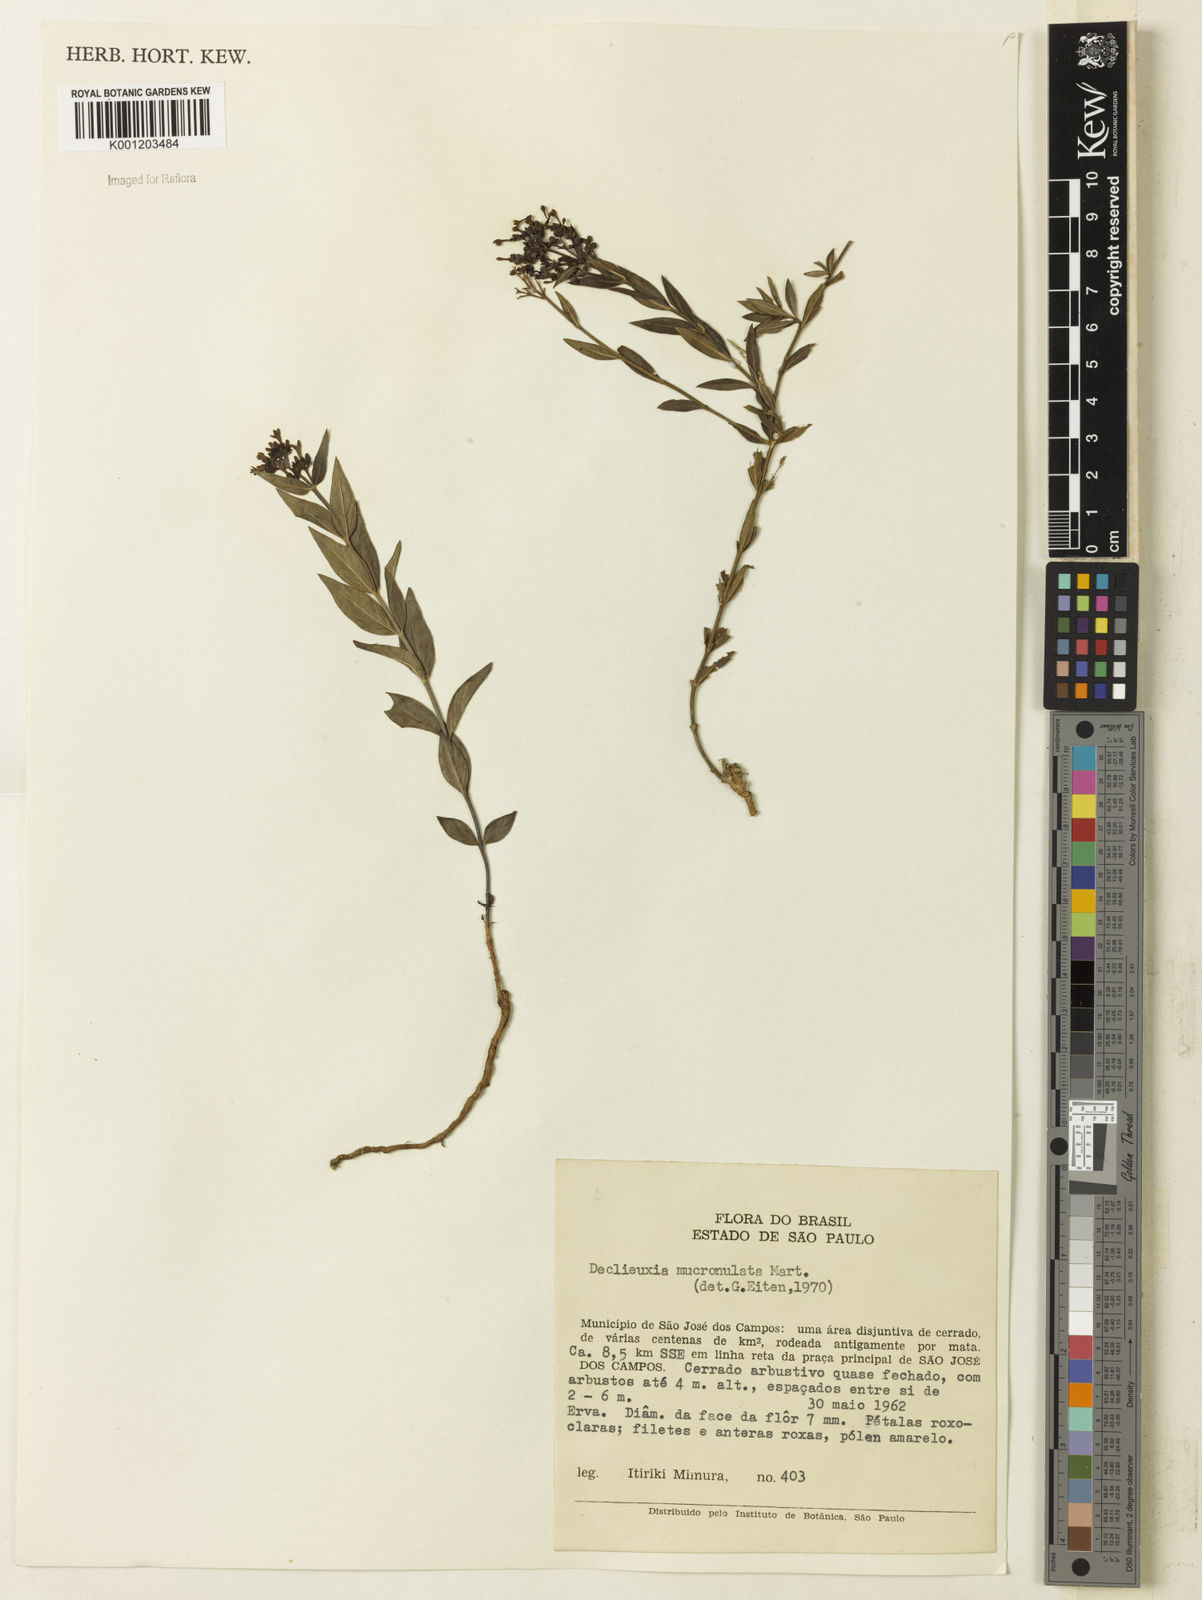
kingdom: Plantae
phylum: Tracheophyta
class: Magnoliopsida
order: Gentianales
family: Rubiaceae
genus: Declieuxia
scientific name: Declieuxia fruticosa
